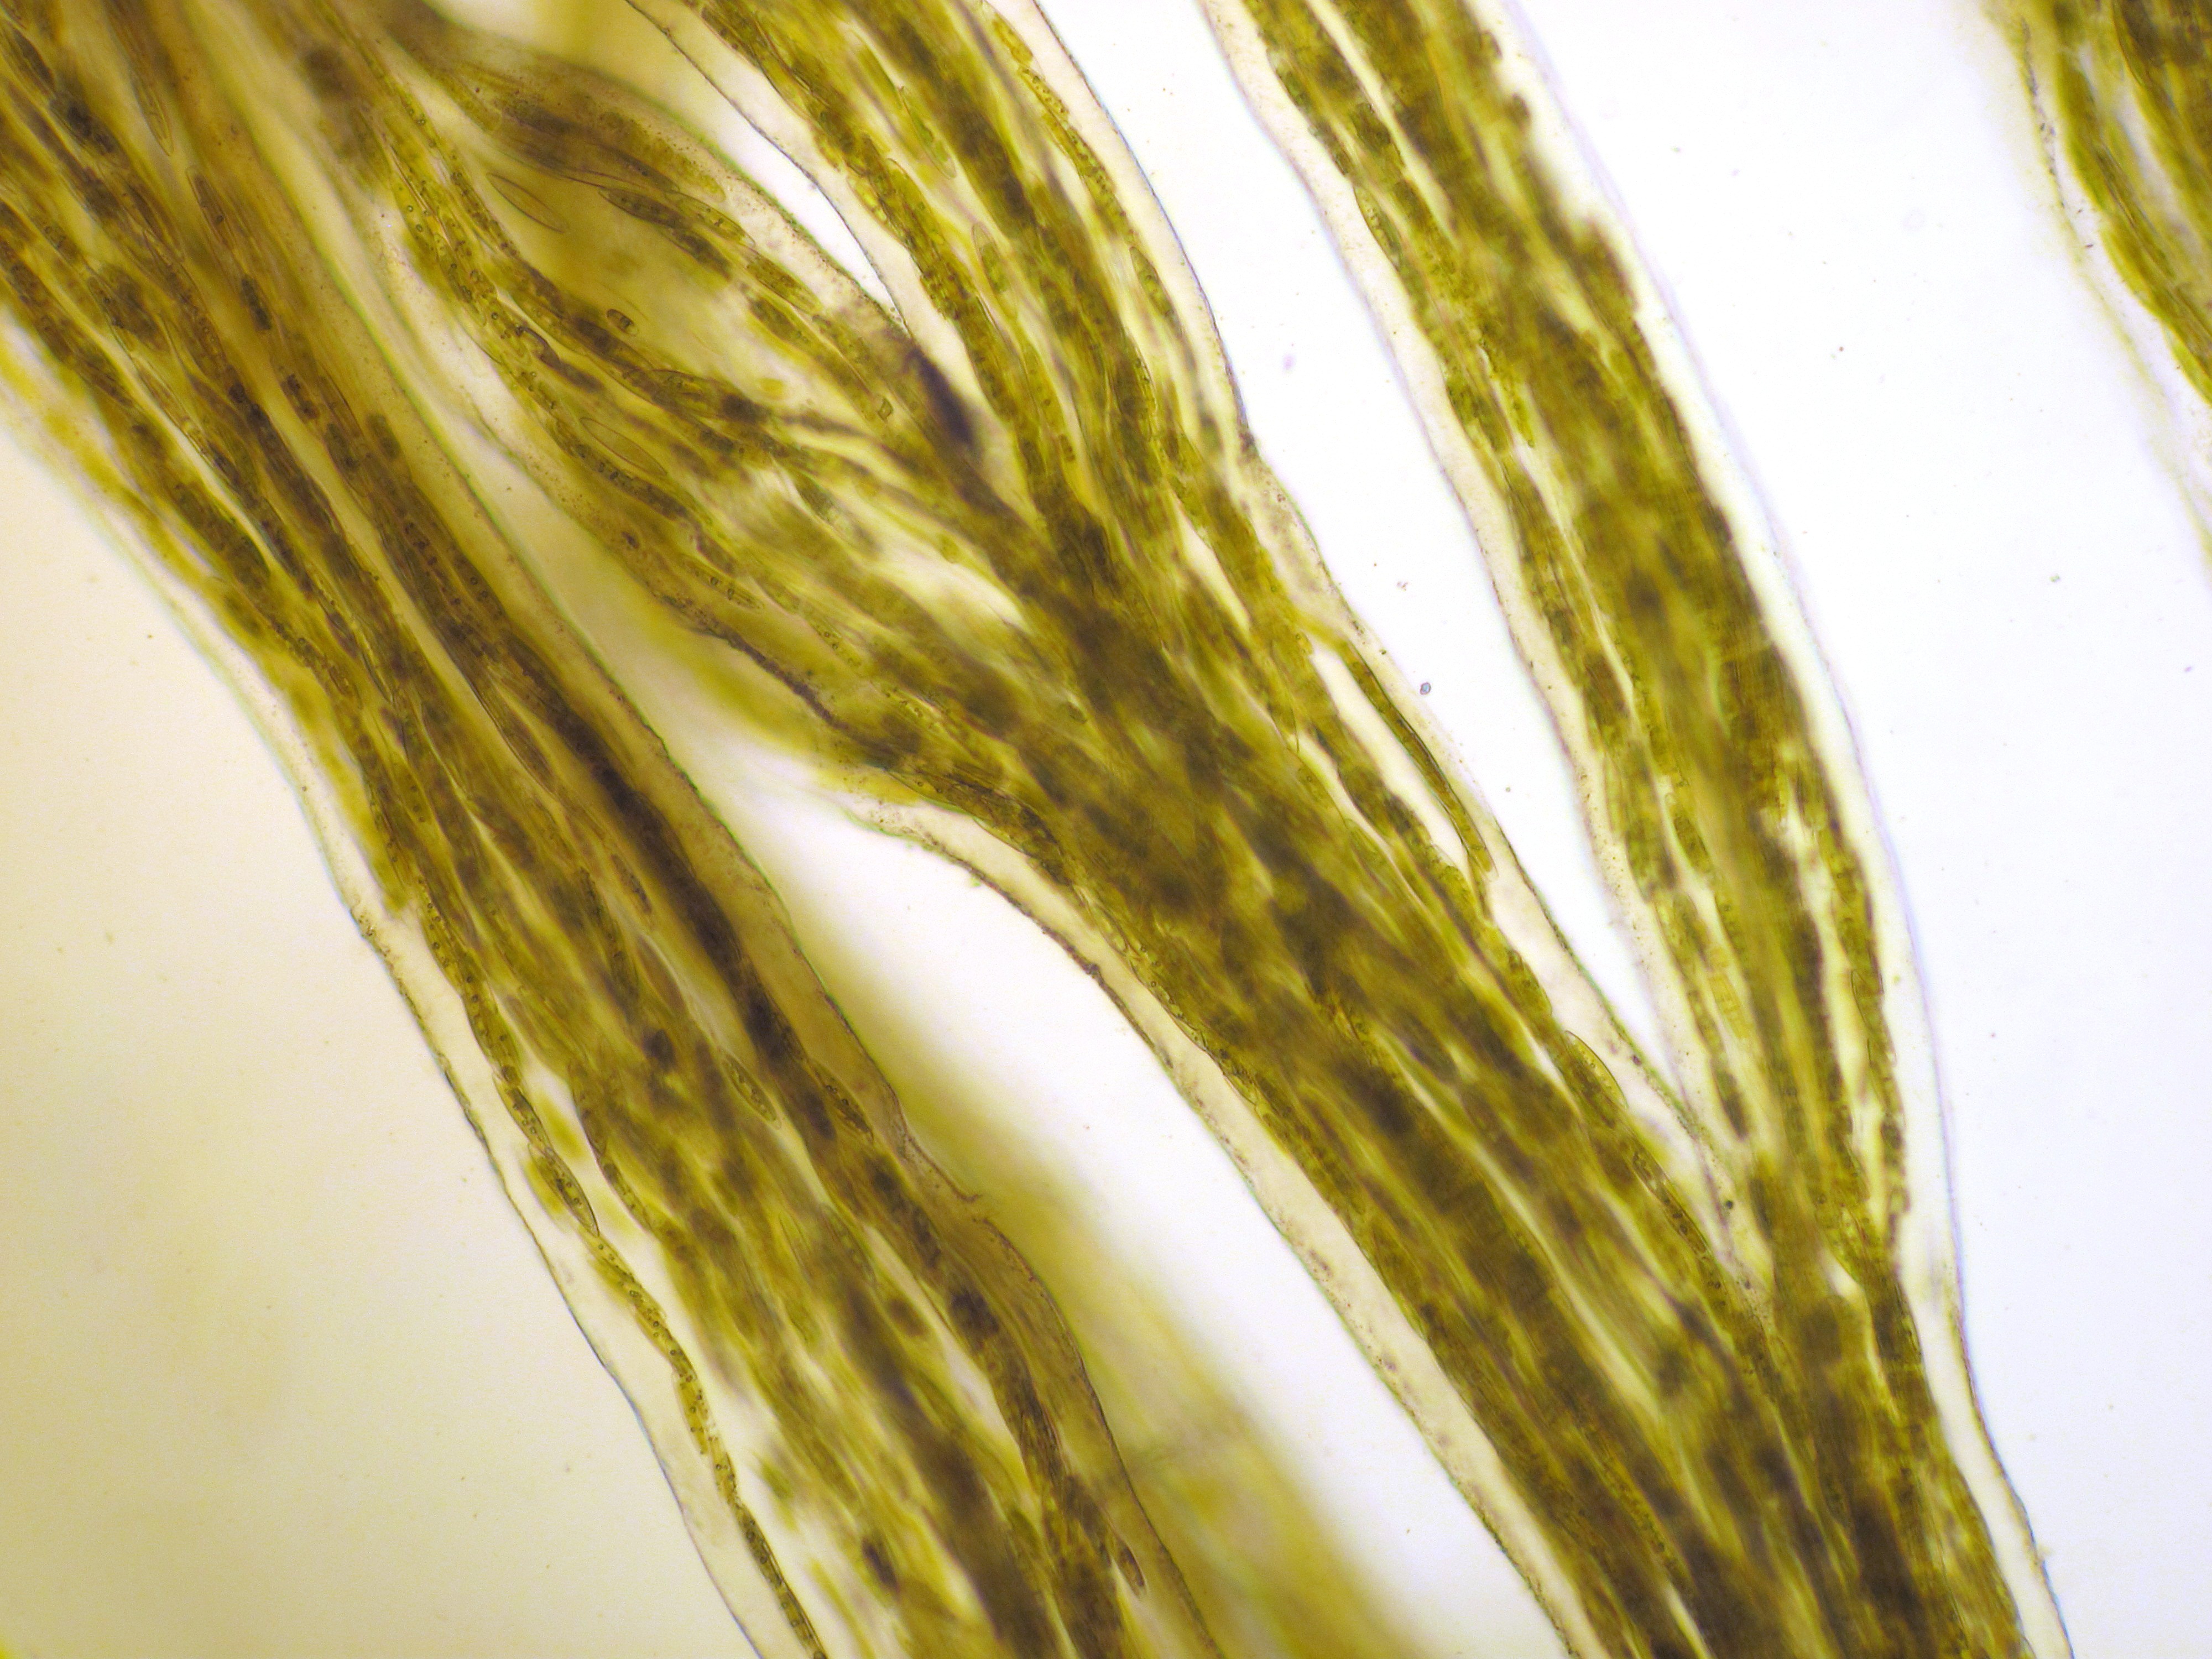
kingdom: Chromista
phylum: Ochrophyta
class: Bacillariophyceae
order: Naviculales
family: Naviculaceae
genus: Navicula
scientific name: Navicula ramosissima
